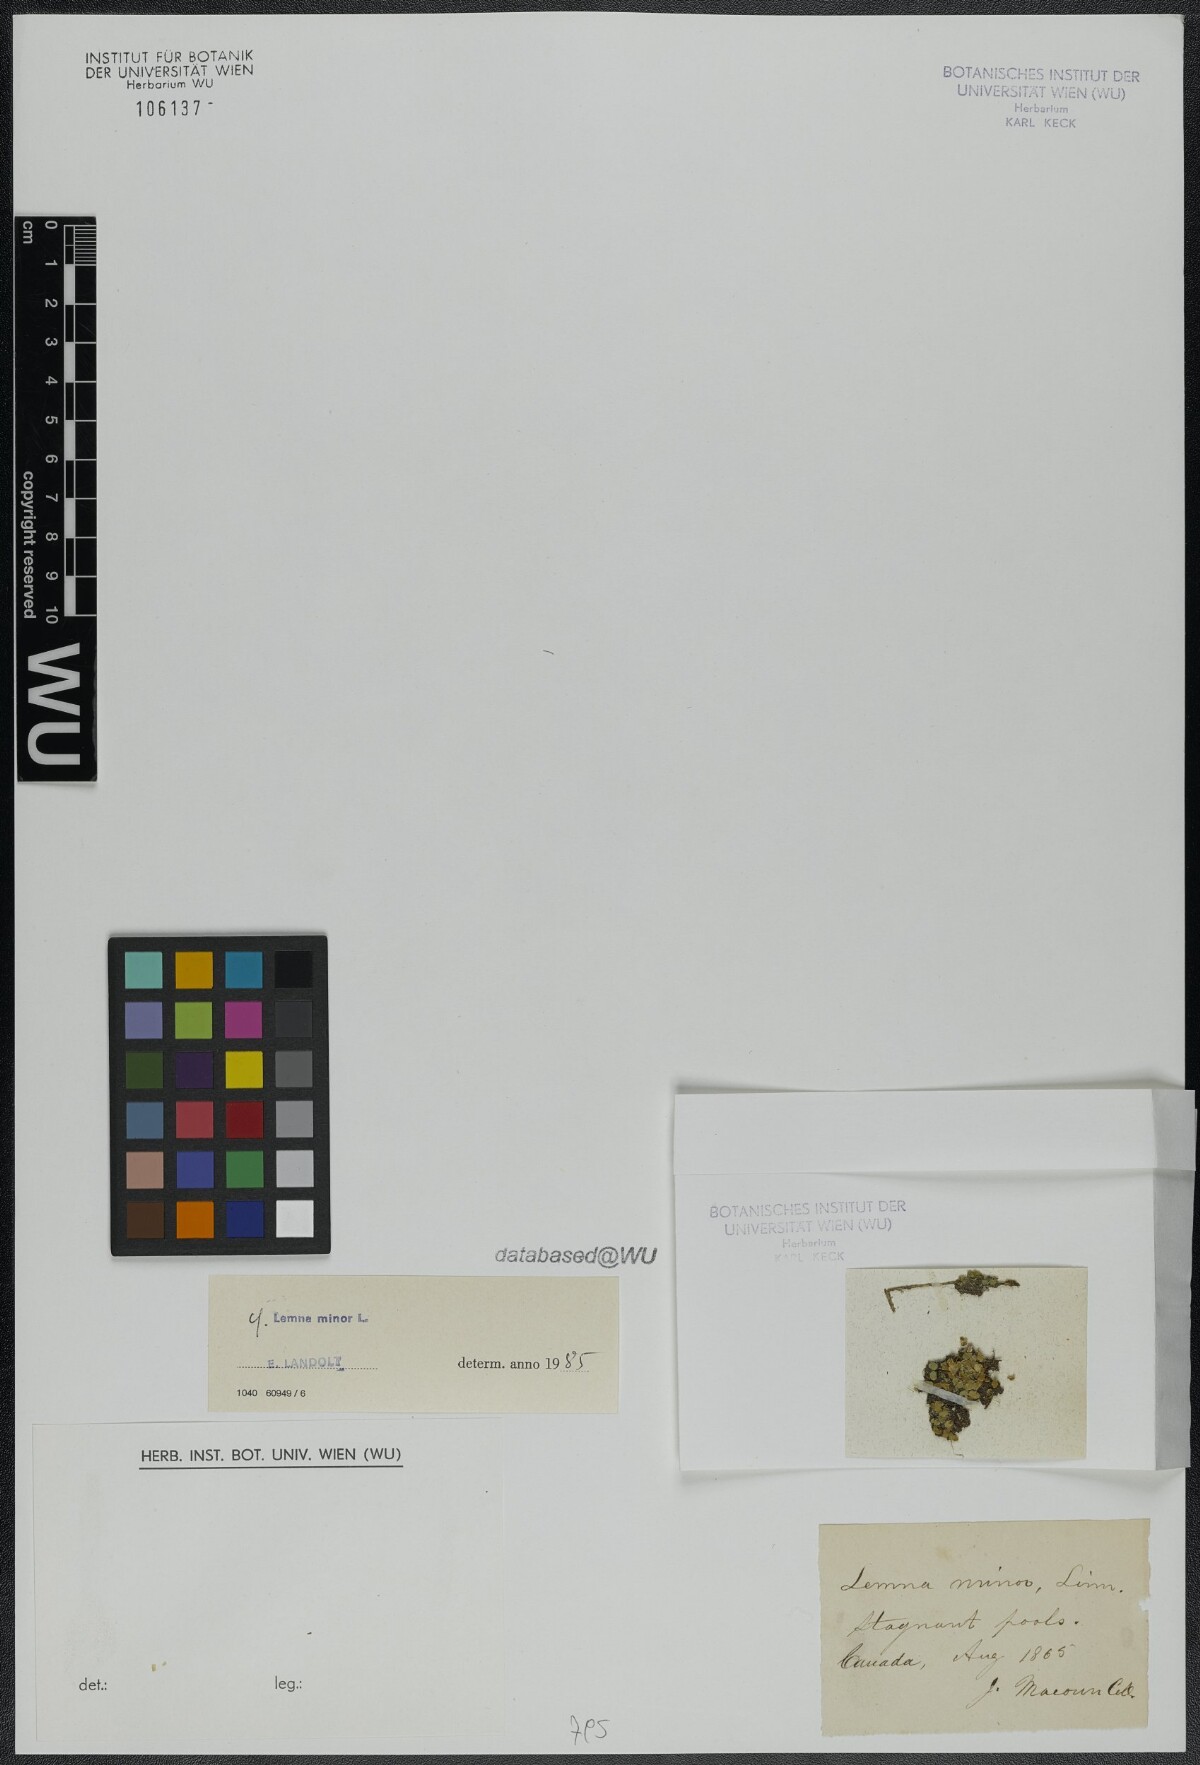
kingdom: Plantae
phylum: Tracheophyta
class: Liliopsida
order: Alismatales
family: Araceae
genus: Lemna
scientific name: Lemna minor
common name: Common duckweed
